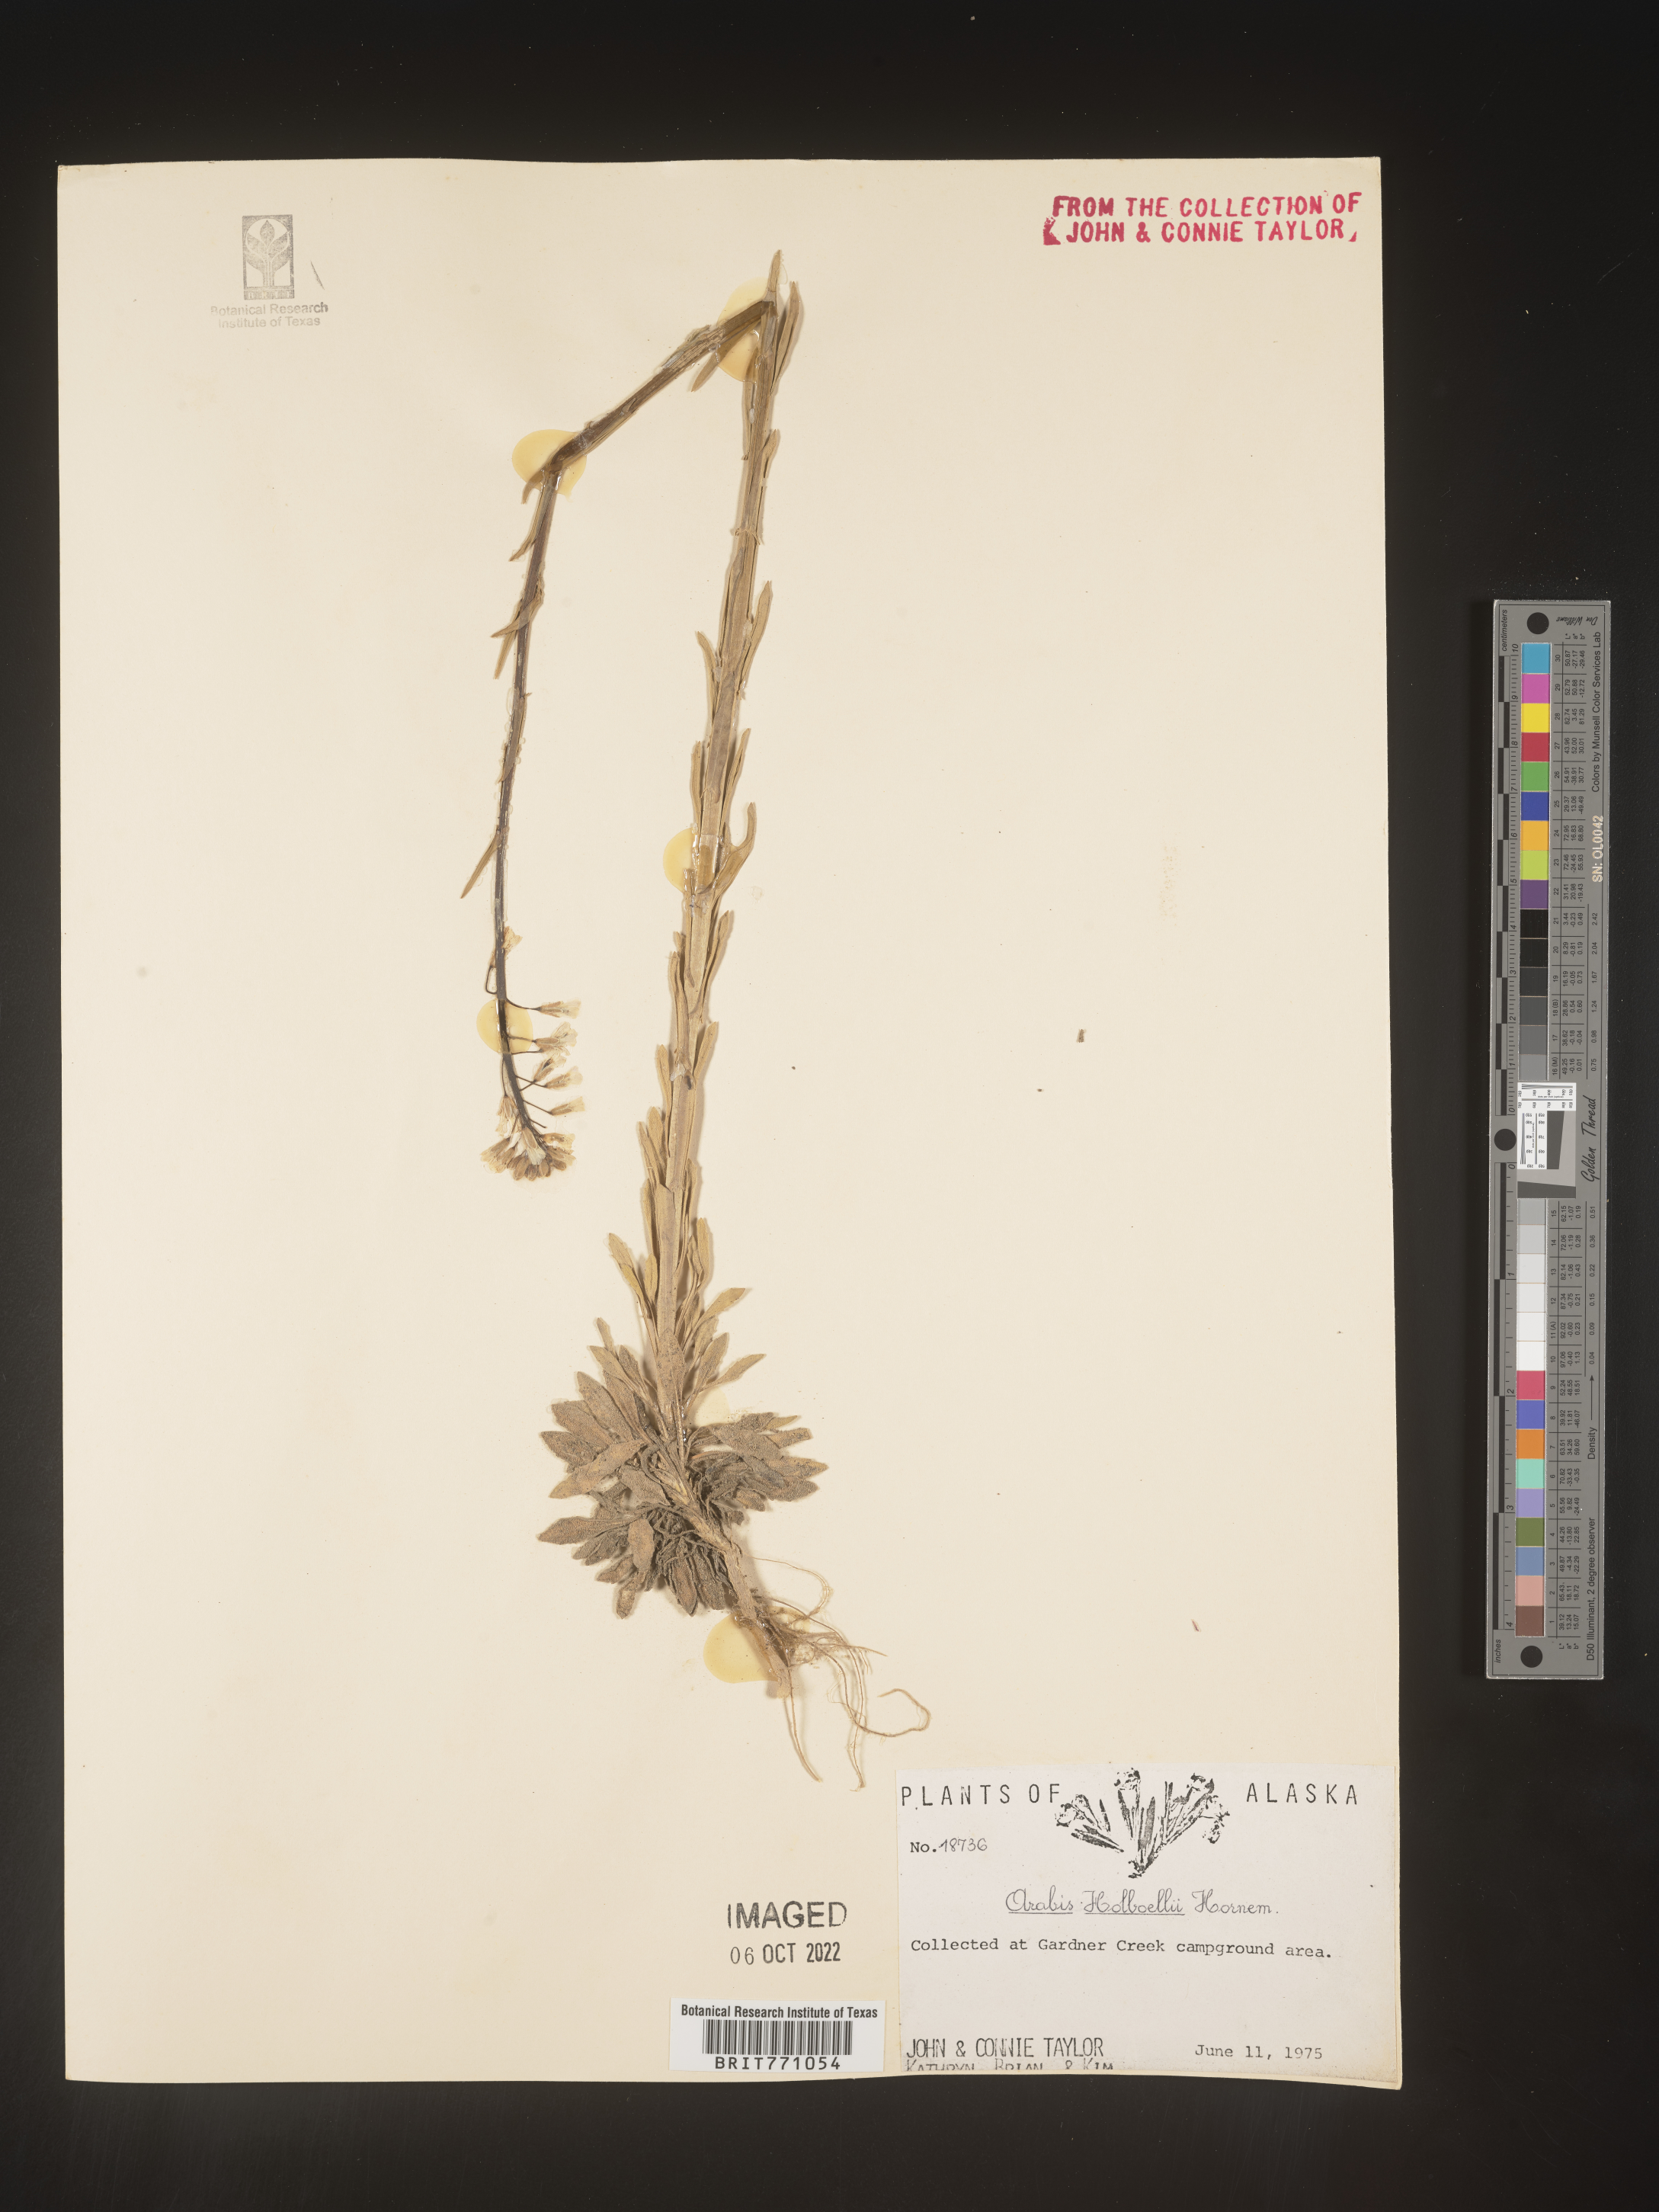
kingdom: Plantae
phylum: Tracheophyta
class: Magnoliopsida
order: Brassicales
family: Brassicaceae
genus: Boechera
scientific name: Boechera holboellii
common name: Holboell's rockcress
